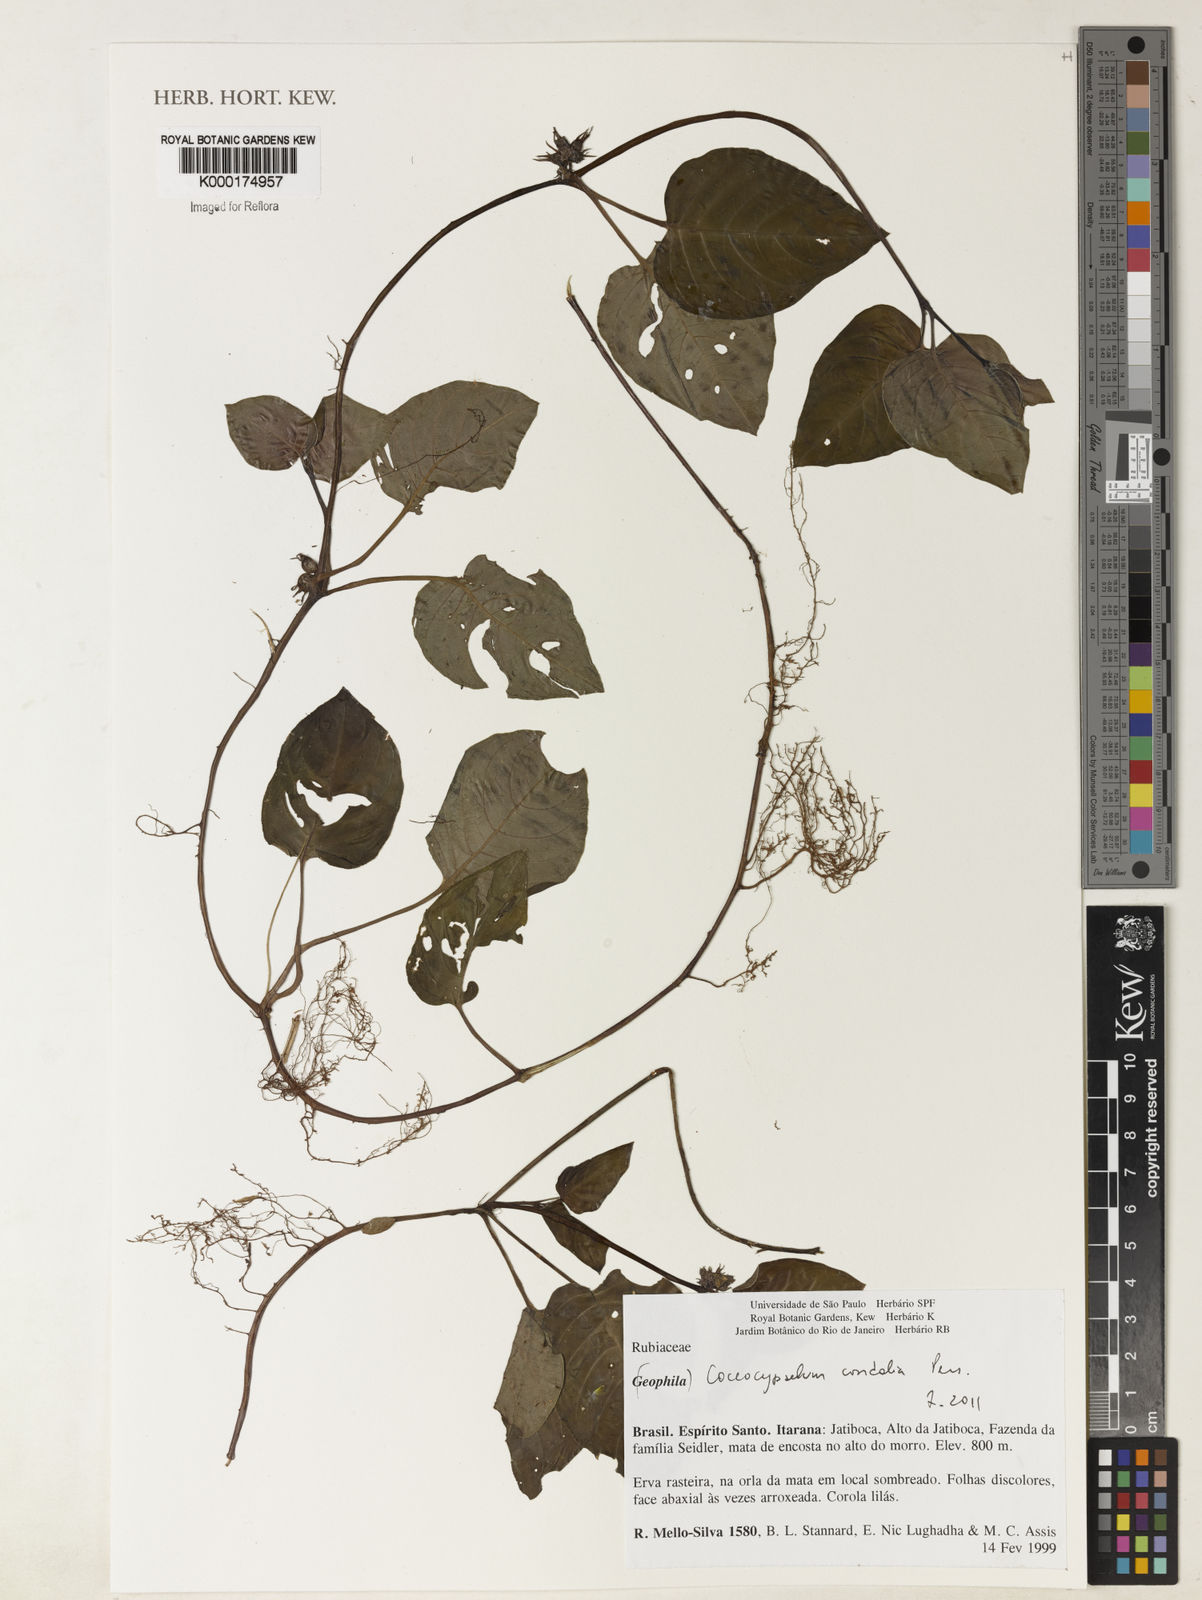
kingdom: Plantae
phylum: Tracheophyta
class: Magnoliopsida
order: Gentianales
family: Rubiaceae
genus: Coccocypselum
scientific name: Coccocypselum condalia
